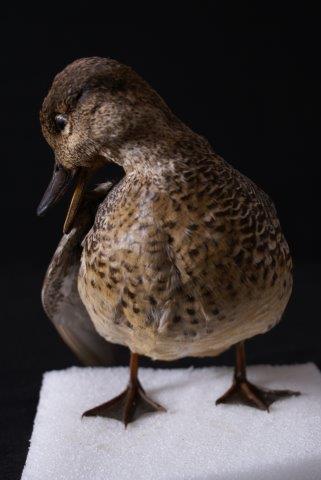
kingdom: Animalia
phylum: Chordata
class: Aves
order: Anseriformes
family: Anatidae
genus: Anas
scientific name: Anas crecca
